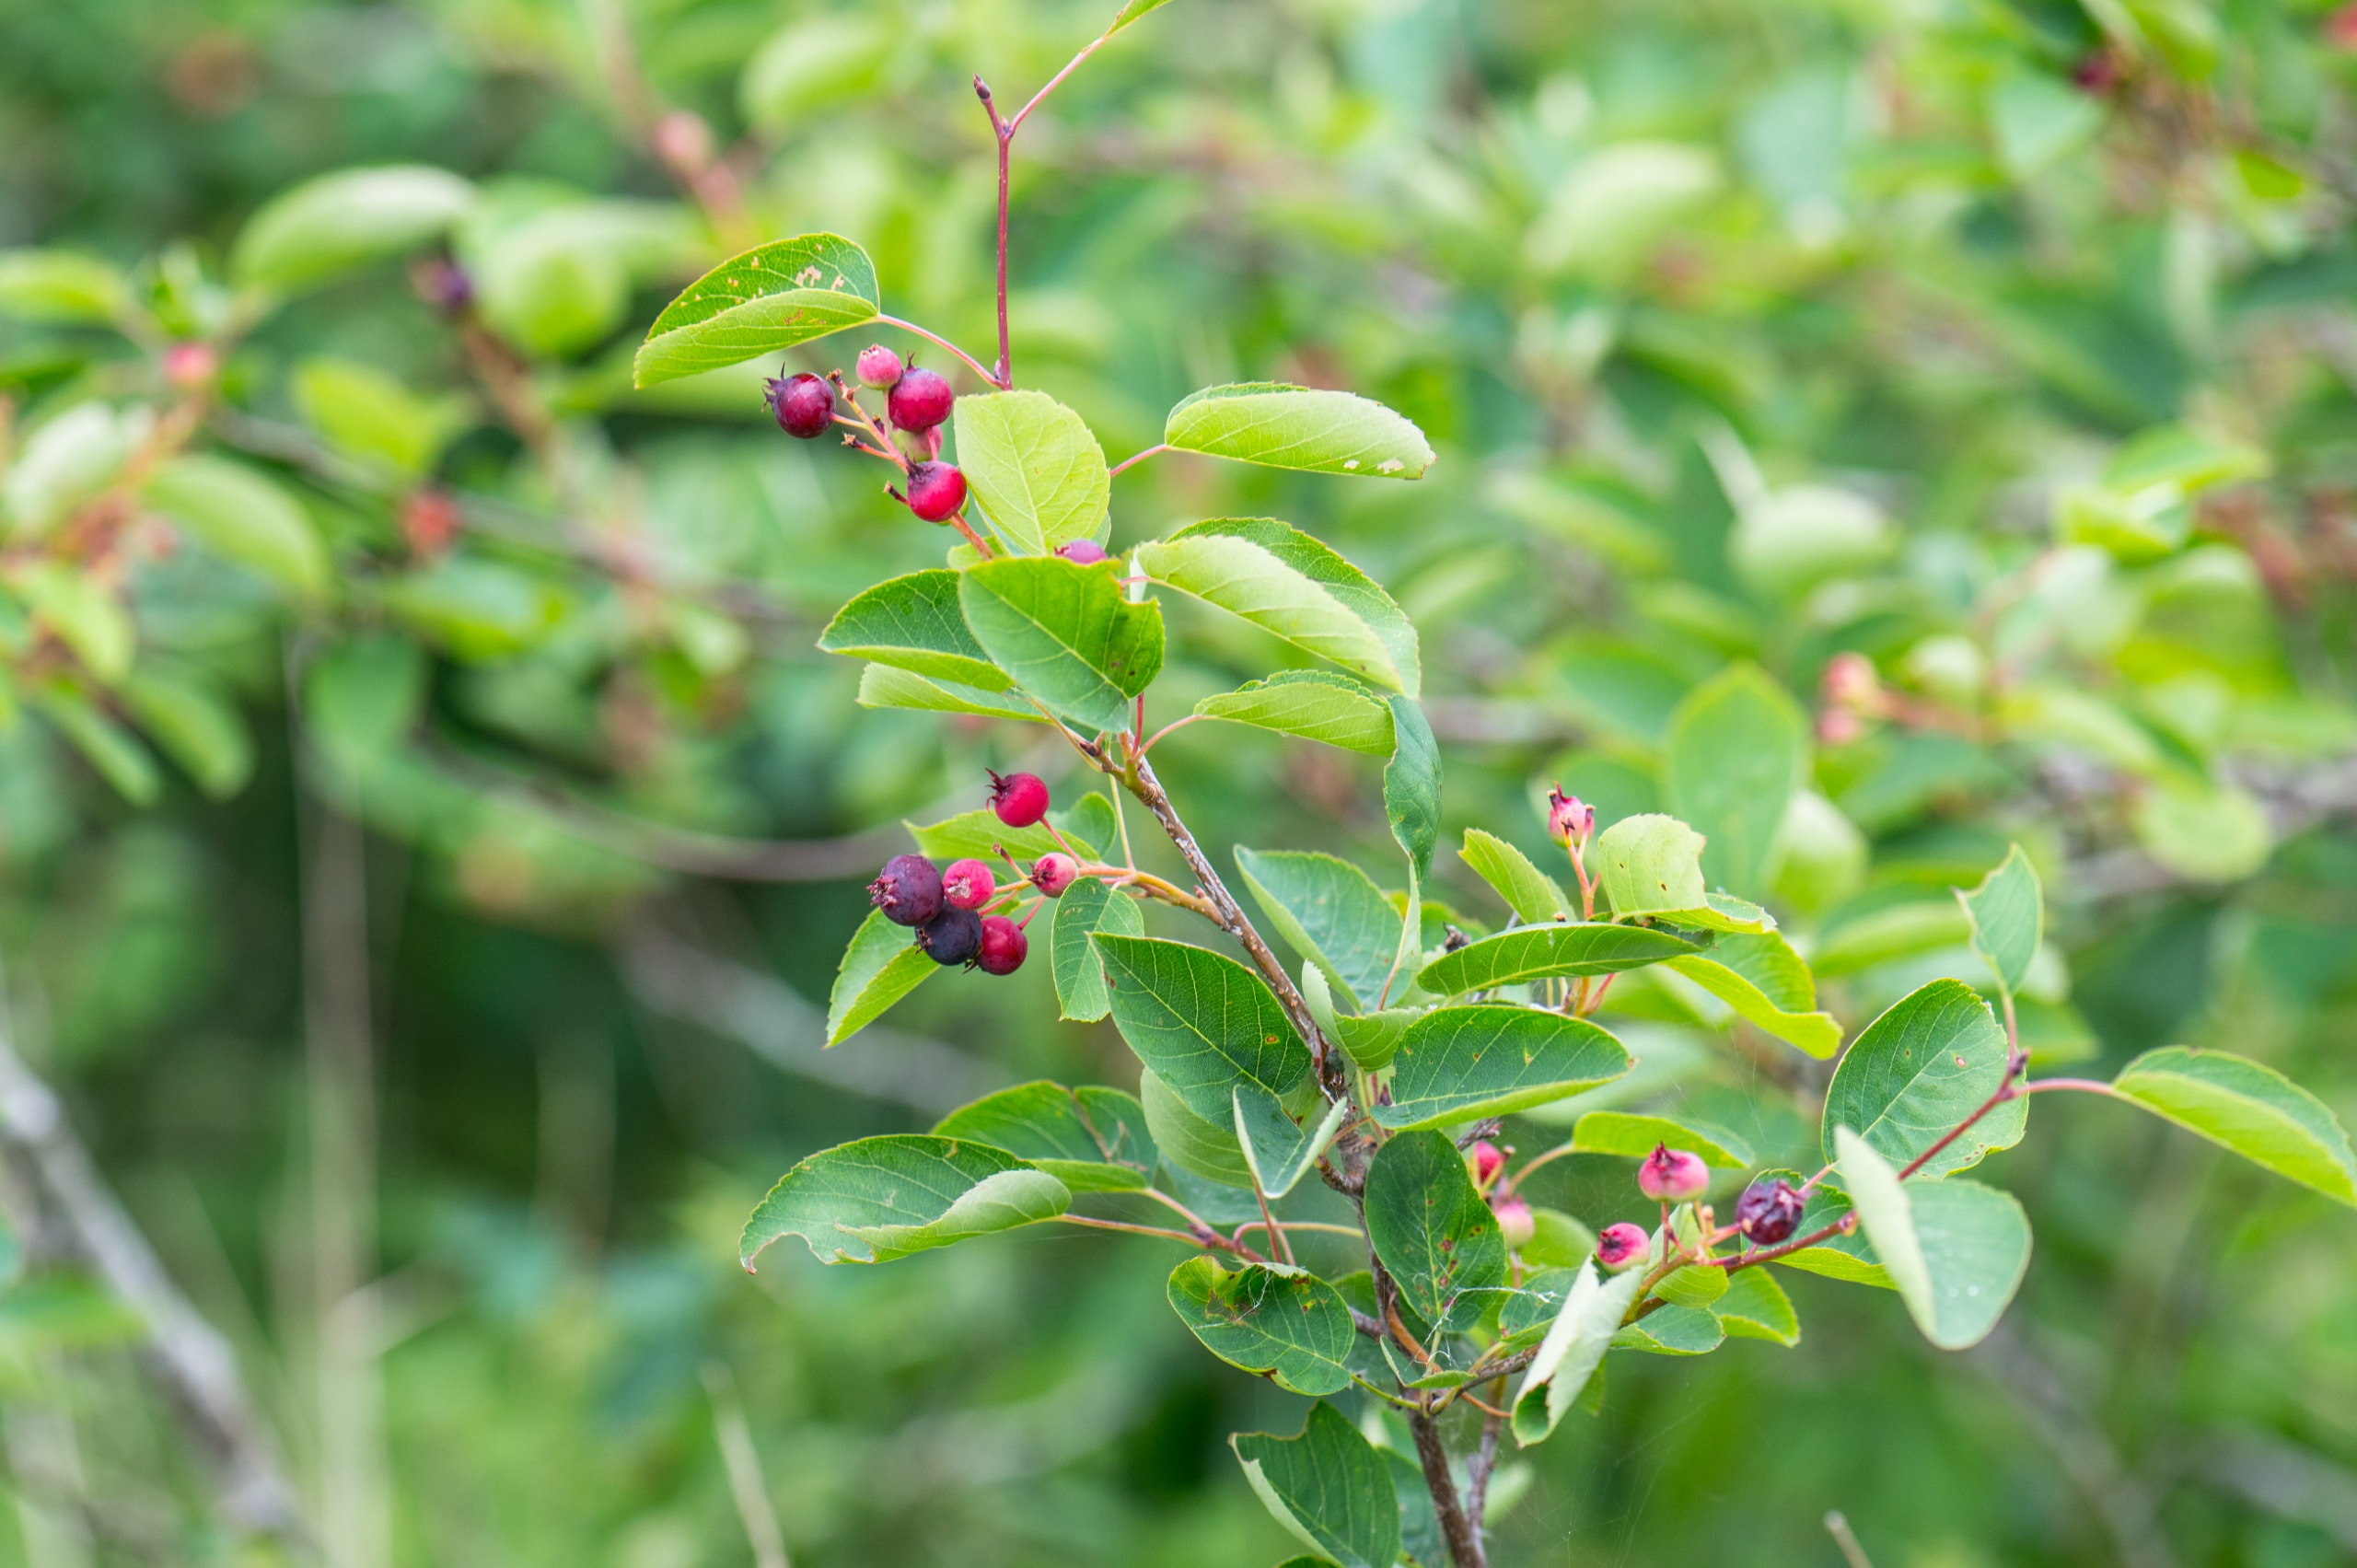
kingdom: Plantae
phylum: Tracheophyta
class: Magnoliopsida
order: Rosales
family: Rosaceae
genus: Amelanchier
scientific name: Amelanchier humilis
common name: Aks-bærmispel
